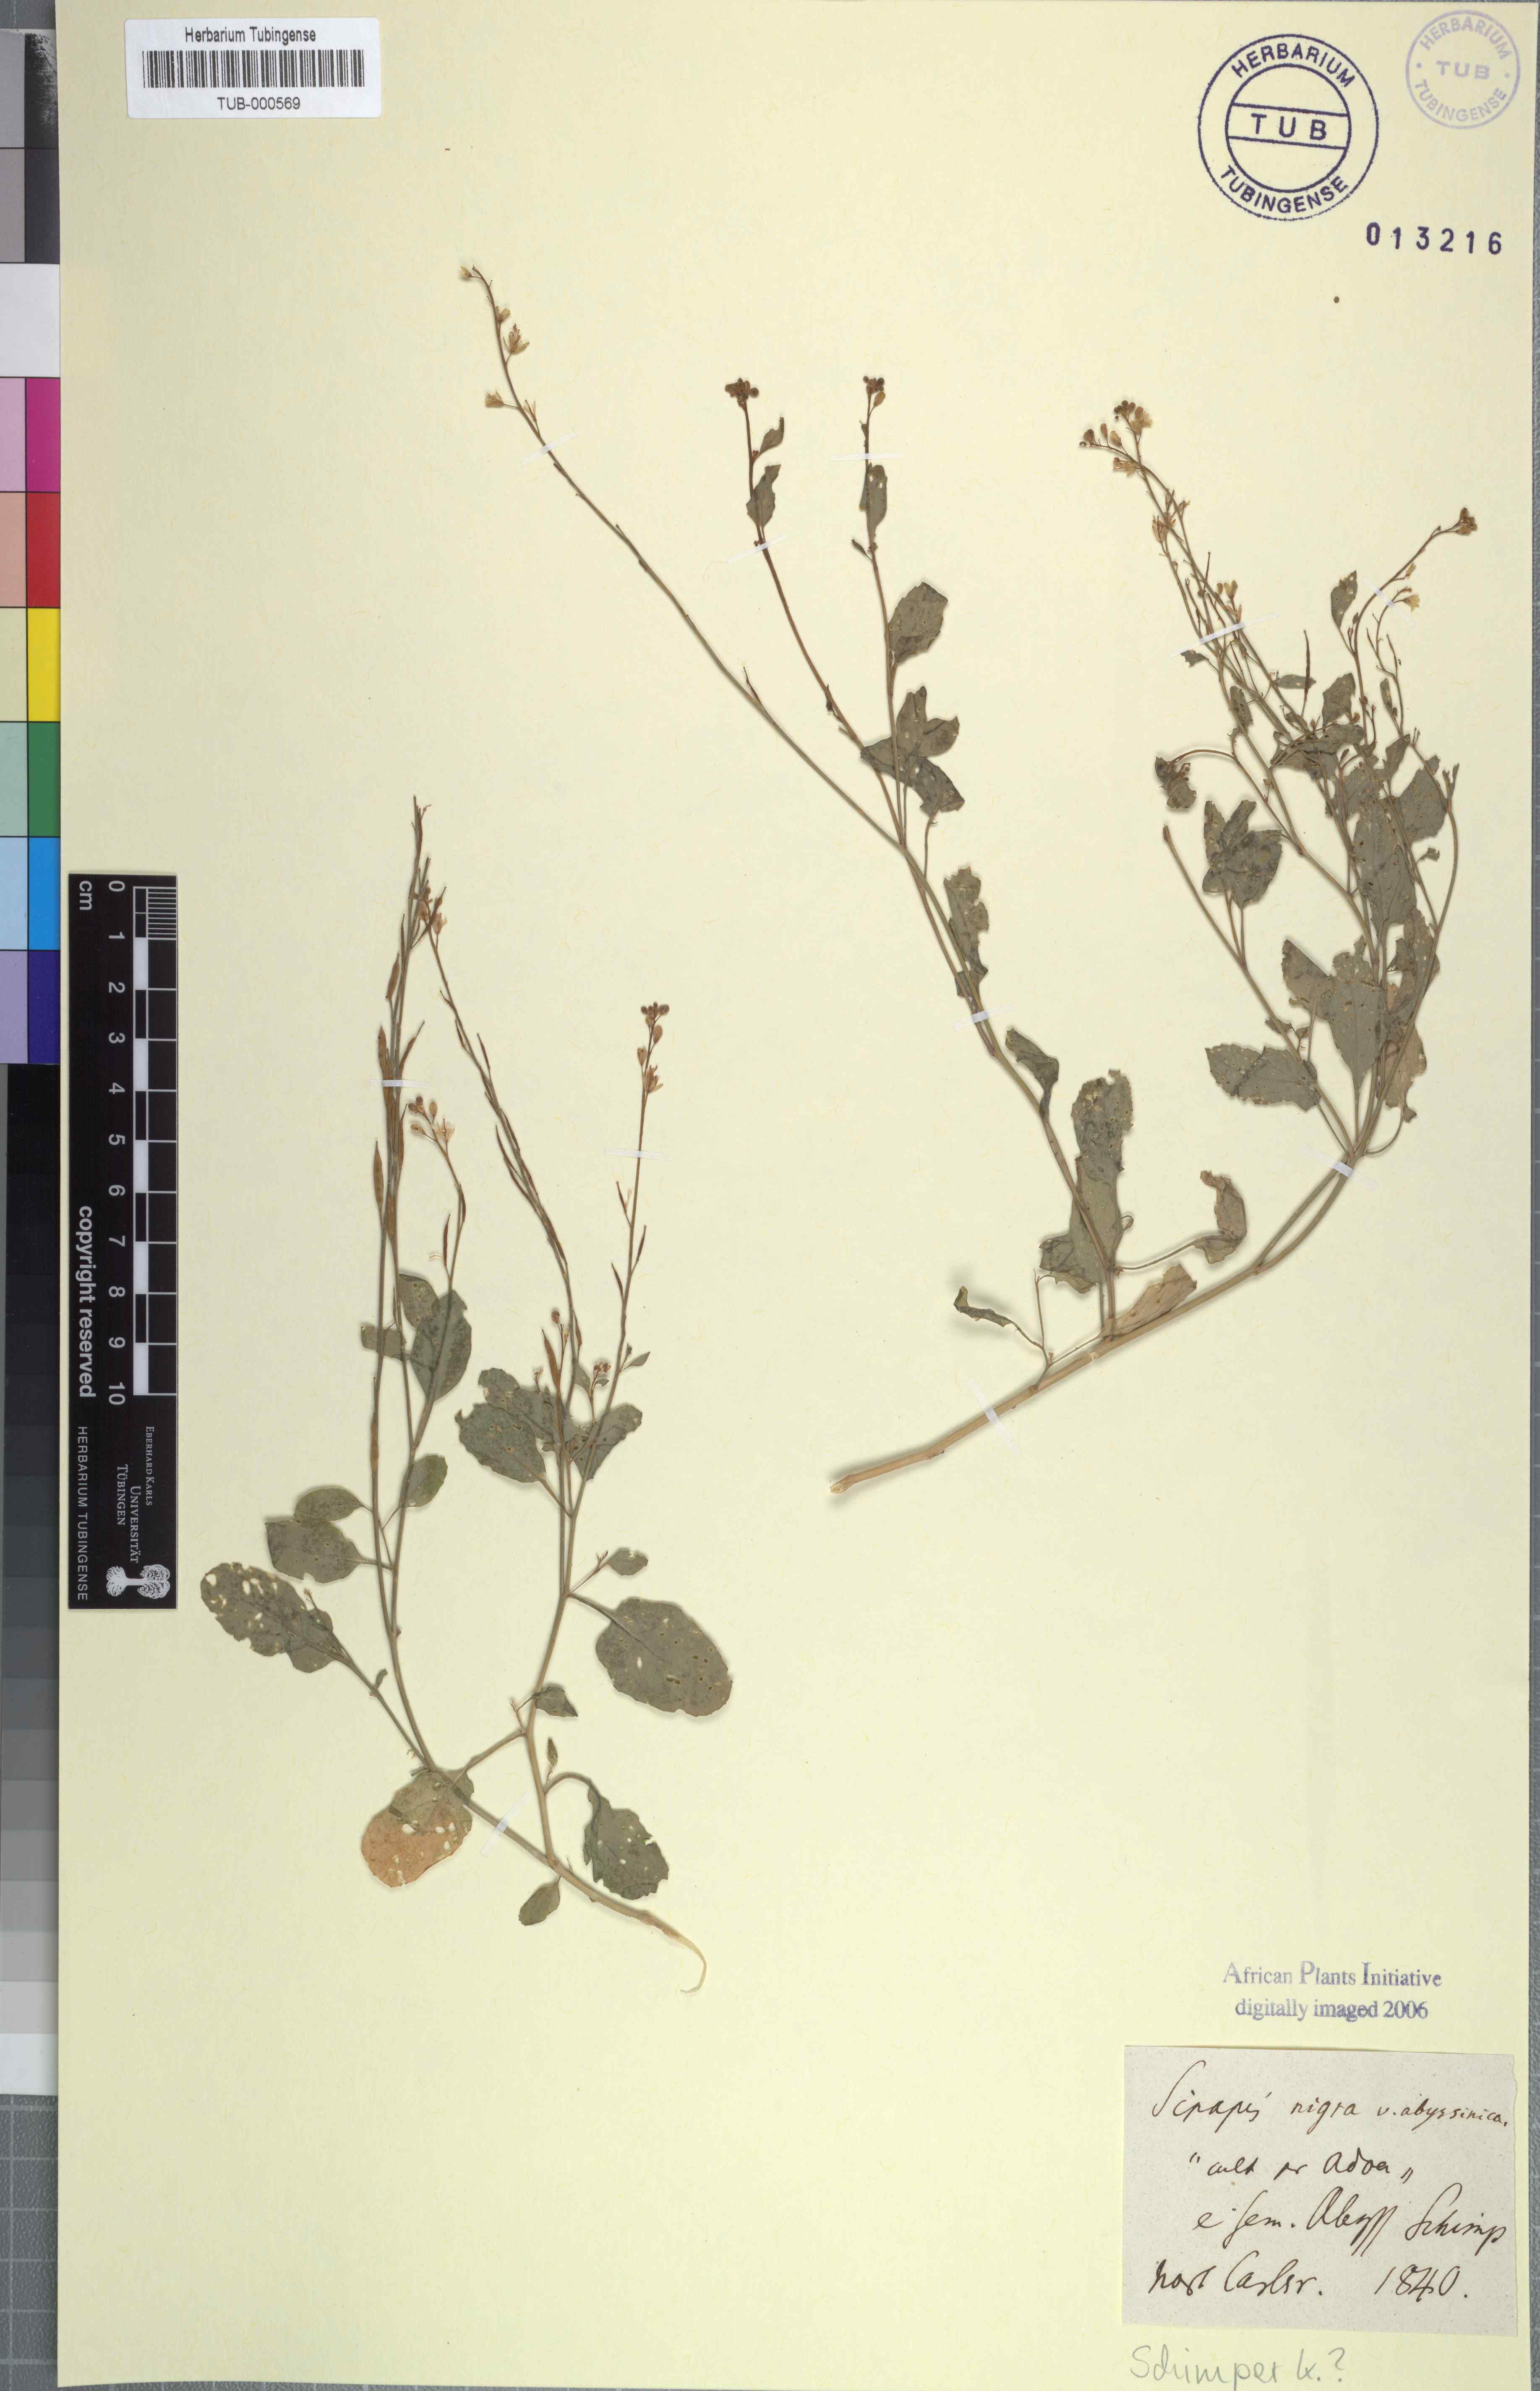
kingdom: Plantae
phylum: Tracheophyta
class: Magnoliopsida
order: Brassicales
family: Brassicaceae
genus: Brassica
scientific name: Brassica nigra
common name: Black mustard
